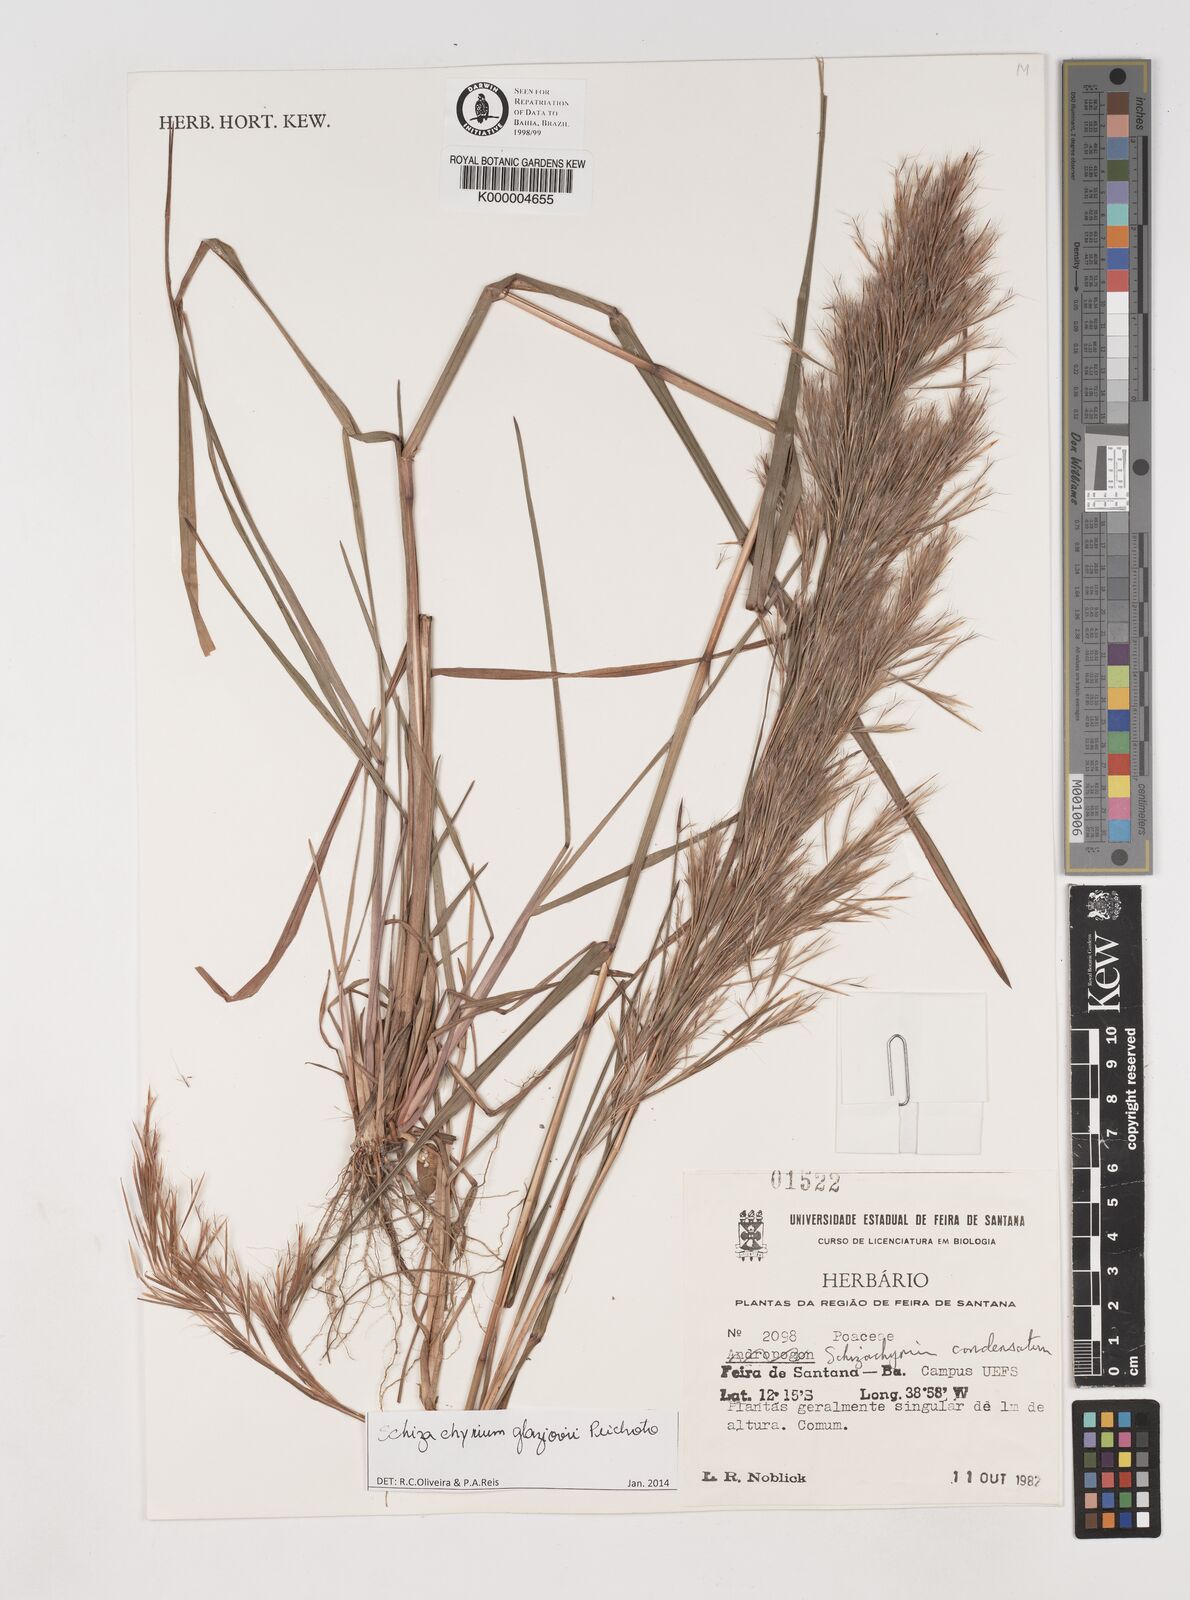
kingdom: Plantae
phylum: Tracheophyta
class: Liliopsida
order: Poales
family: Poaceae
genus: Schizachyrium
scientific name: Schizachyrium condensatum
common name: Bush beardgrass
